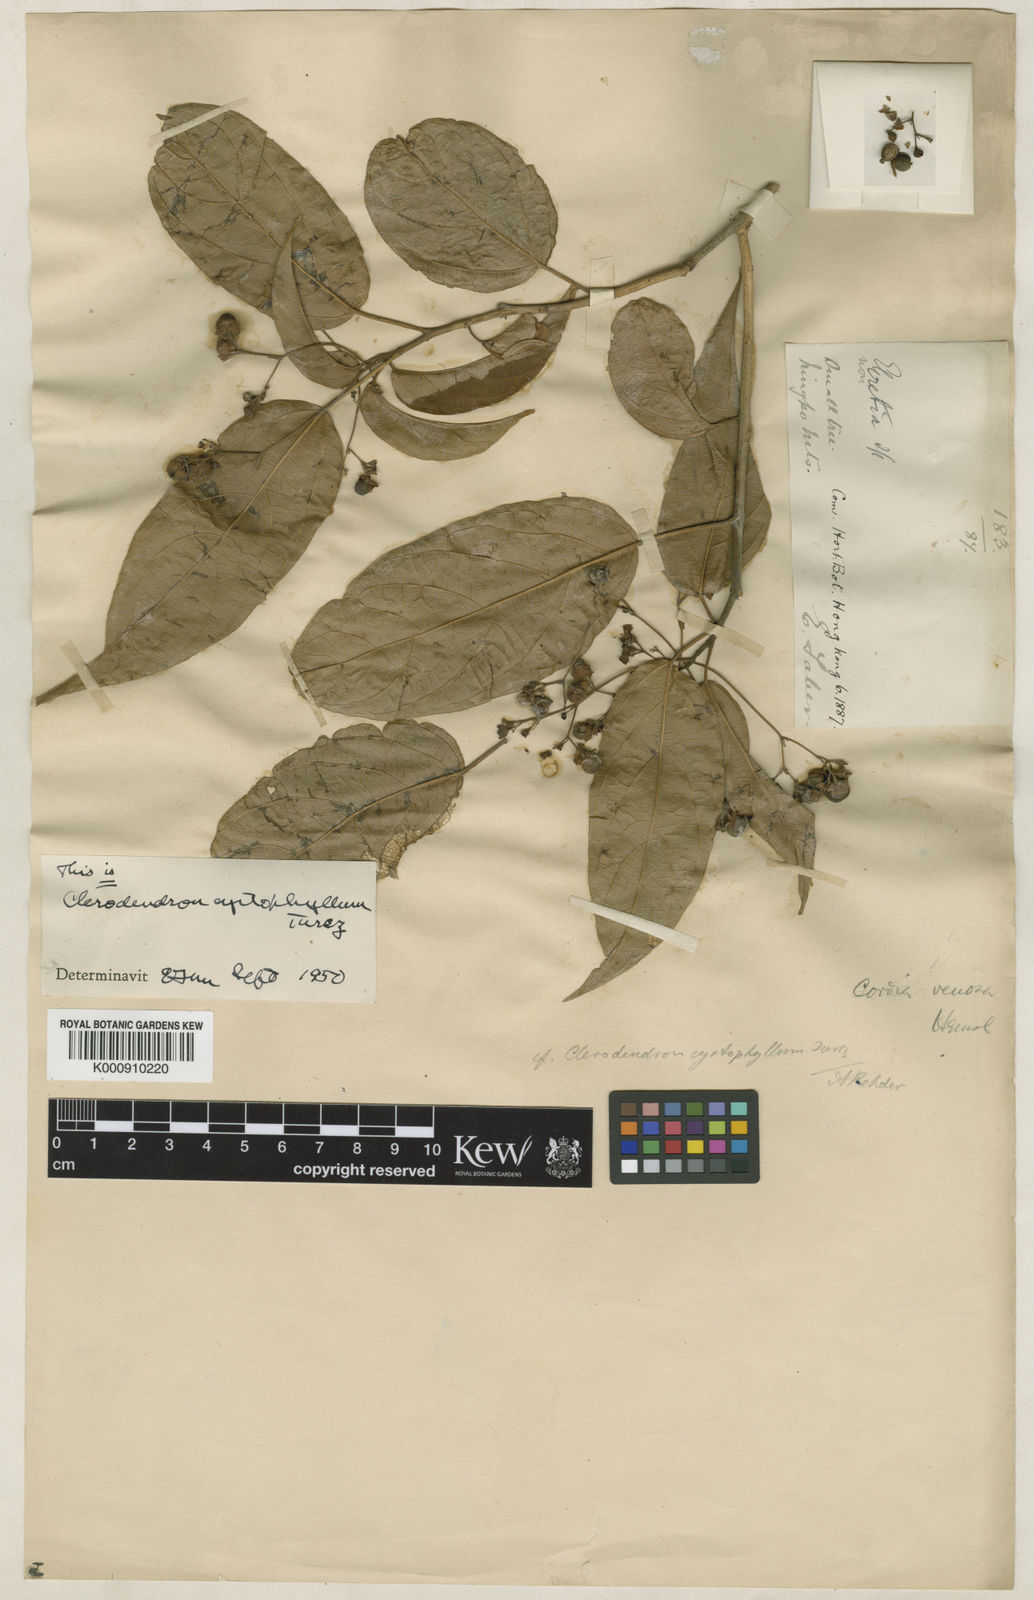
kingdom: Plantae
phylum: Tracheophyta
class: Magnoliopsida
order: Lamiales
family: Lamiaceae
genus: Clerodendrum
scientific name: Clerodendrum cyrtophyllum
